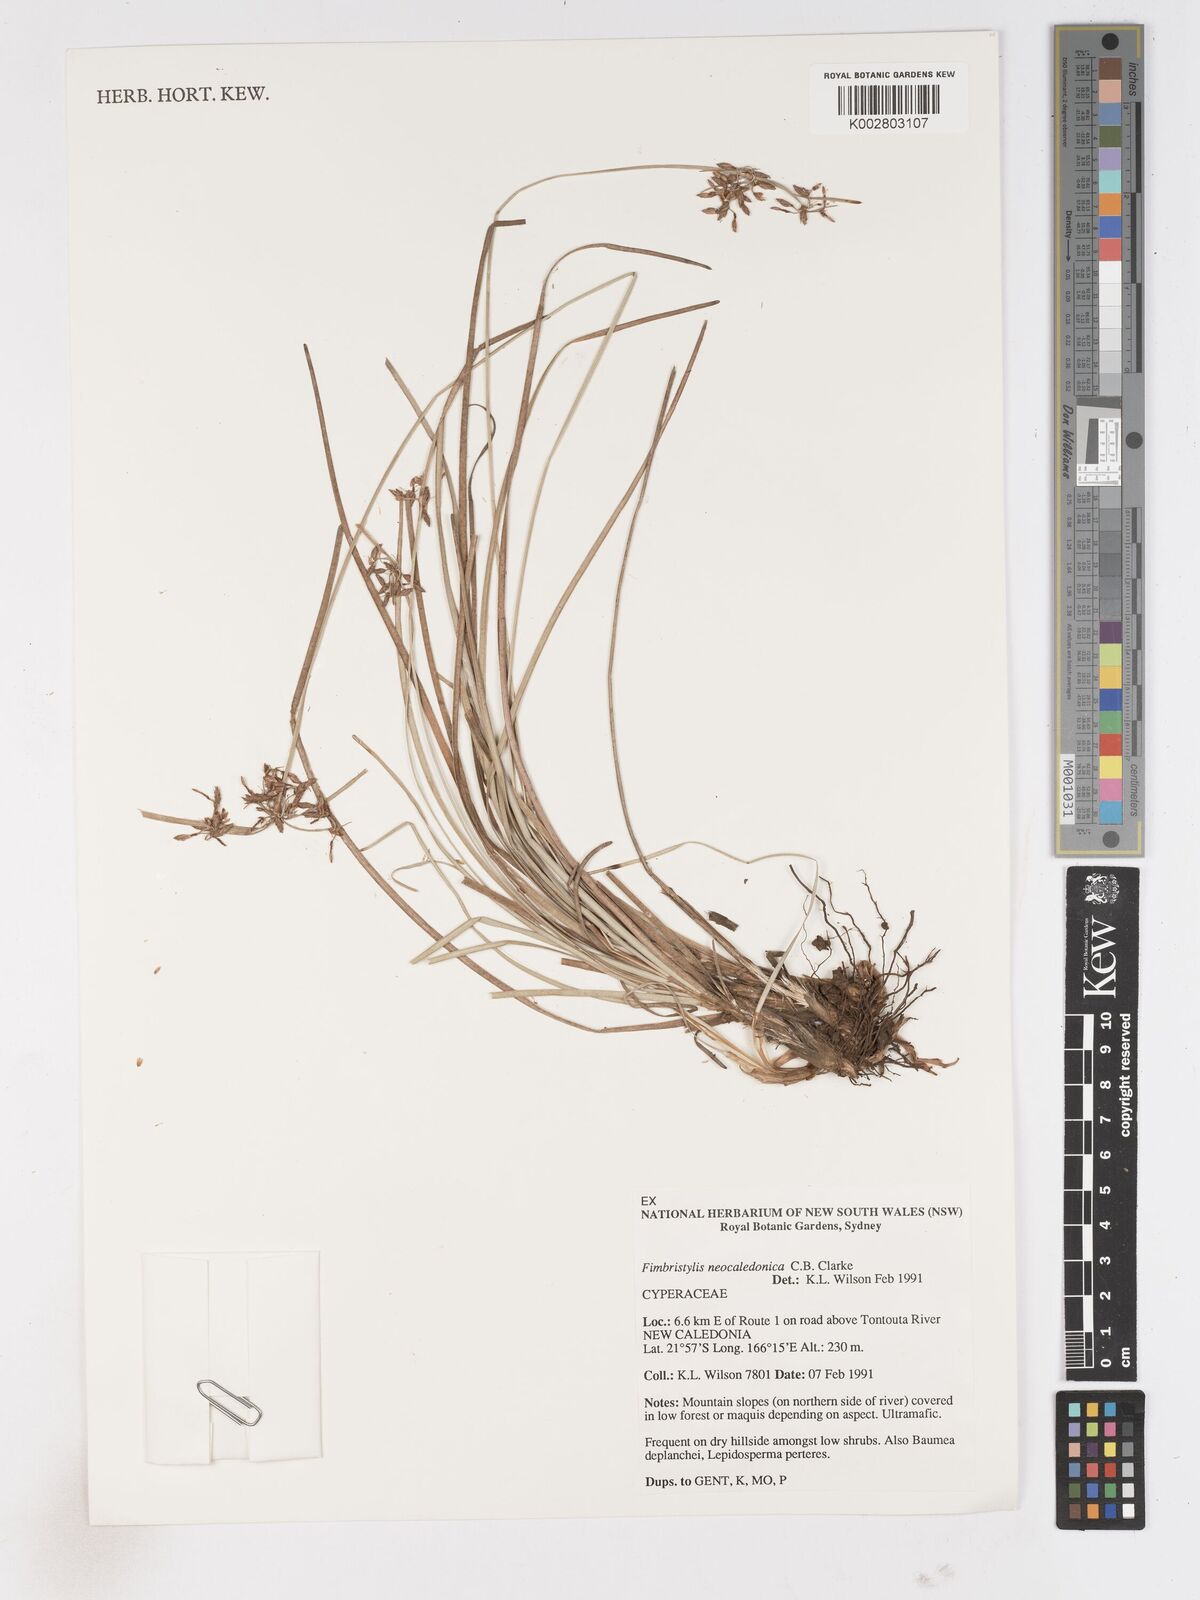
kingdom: Plantae
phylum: Tracheophyta
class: Liliopsida
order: Poales
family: Cyperaceae
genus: Fimbristylis
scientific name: Fimbristylis neocaledonica
